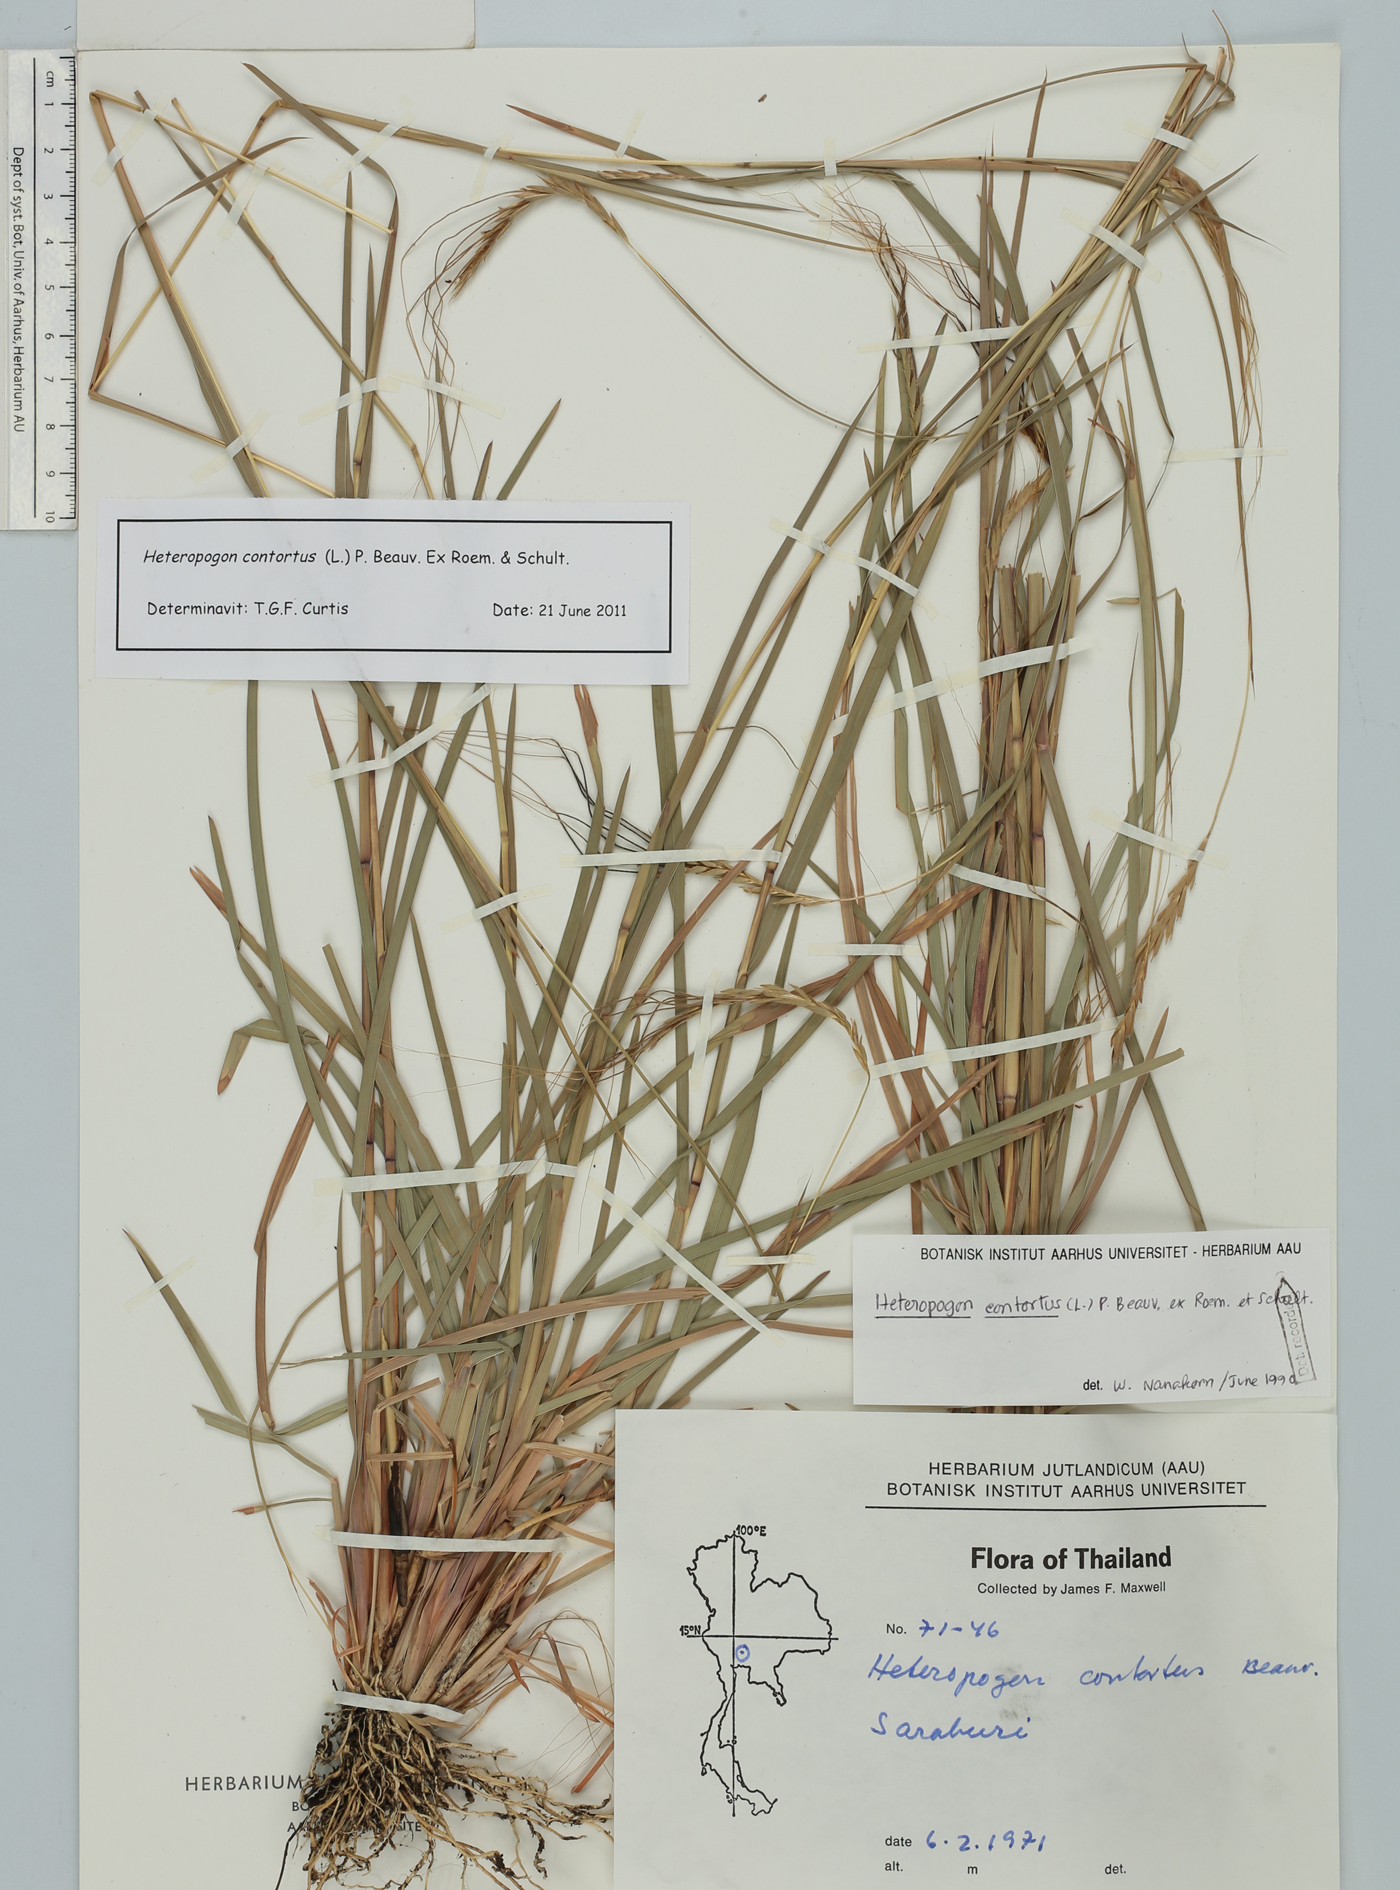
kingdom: Plantae
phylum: Tracheophyta
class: Liliopsida
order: Poales
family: Poaceae
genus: Heteropogon
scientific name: Heteropogon contortus
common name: Tanglehead
